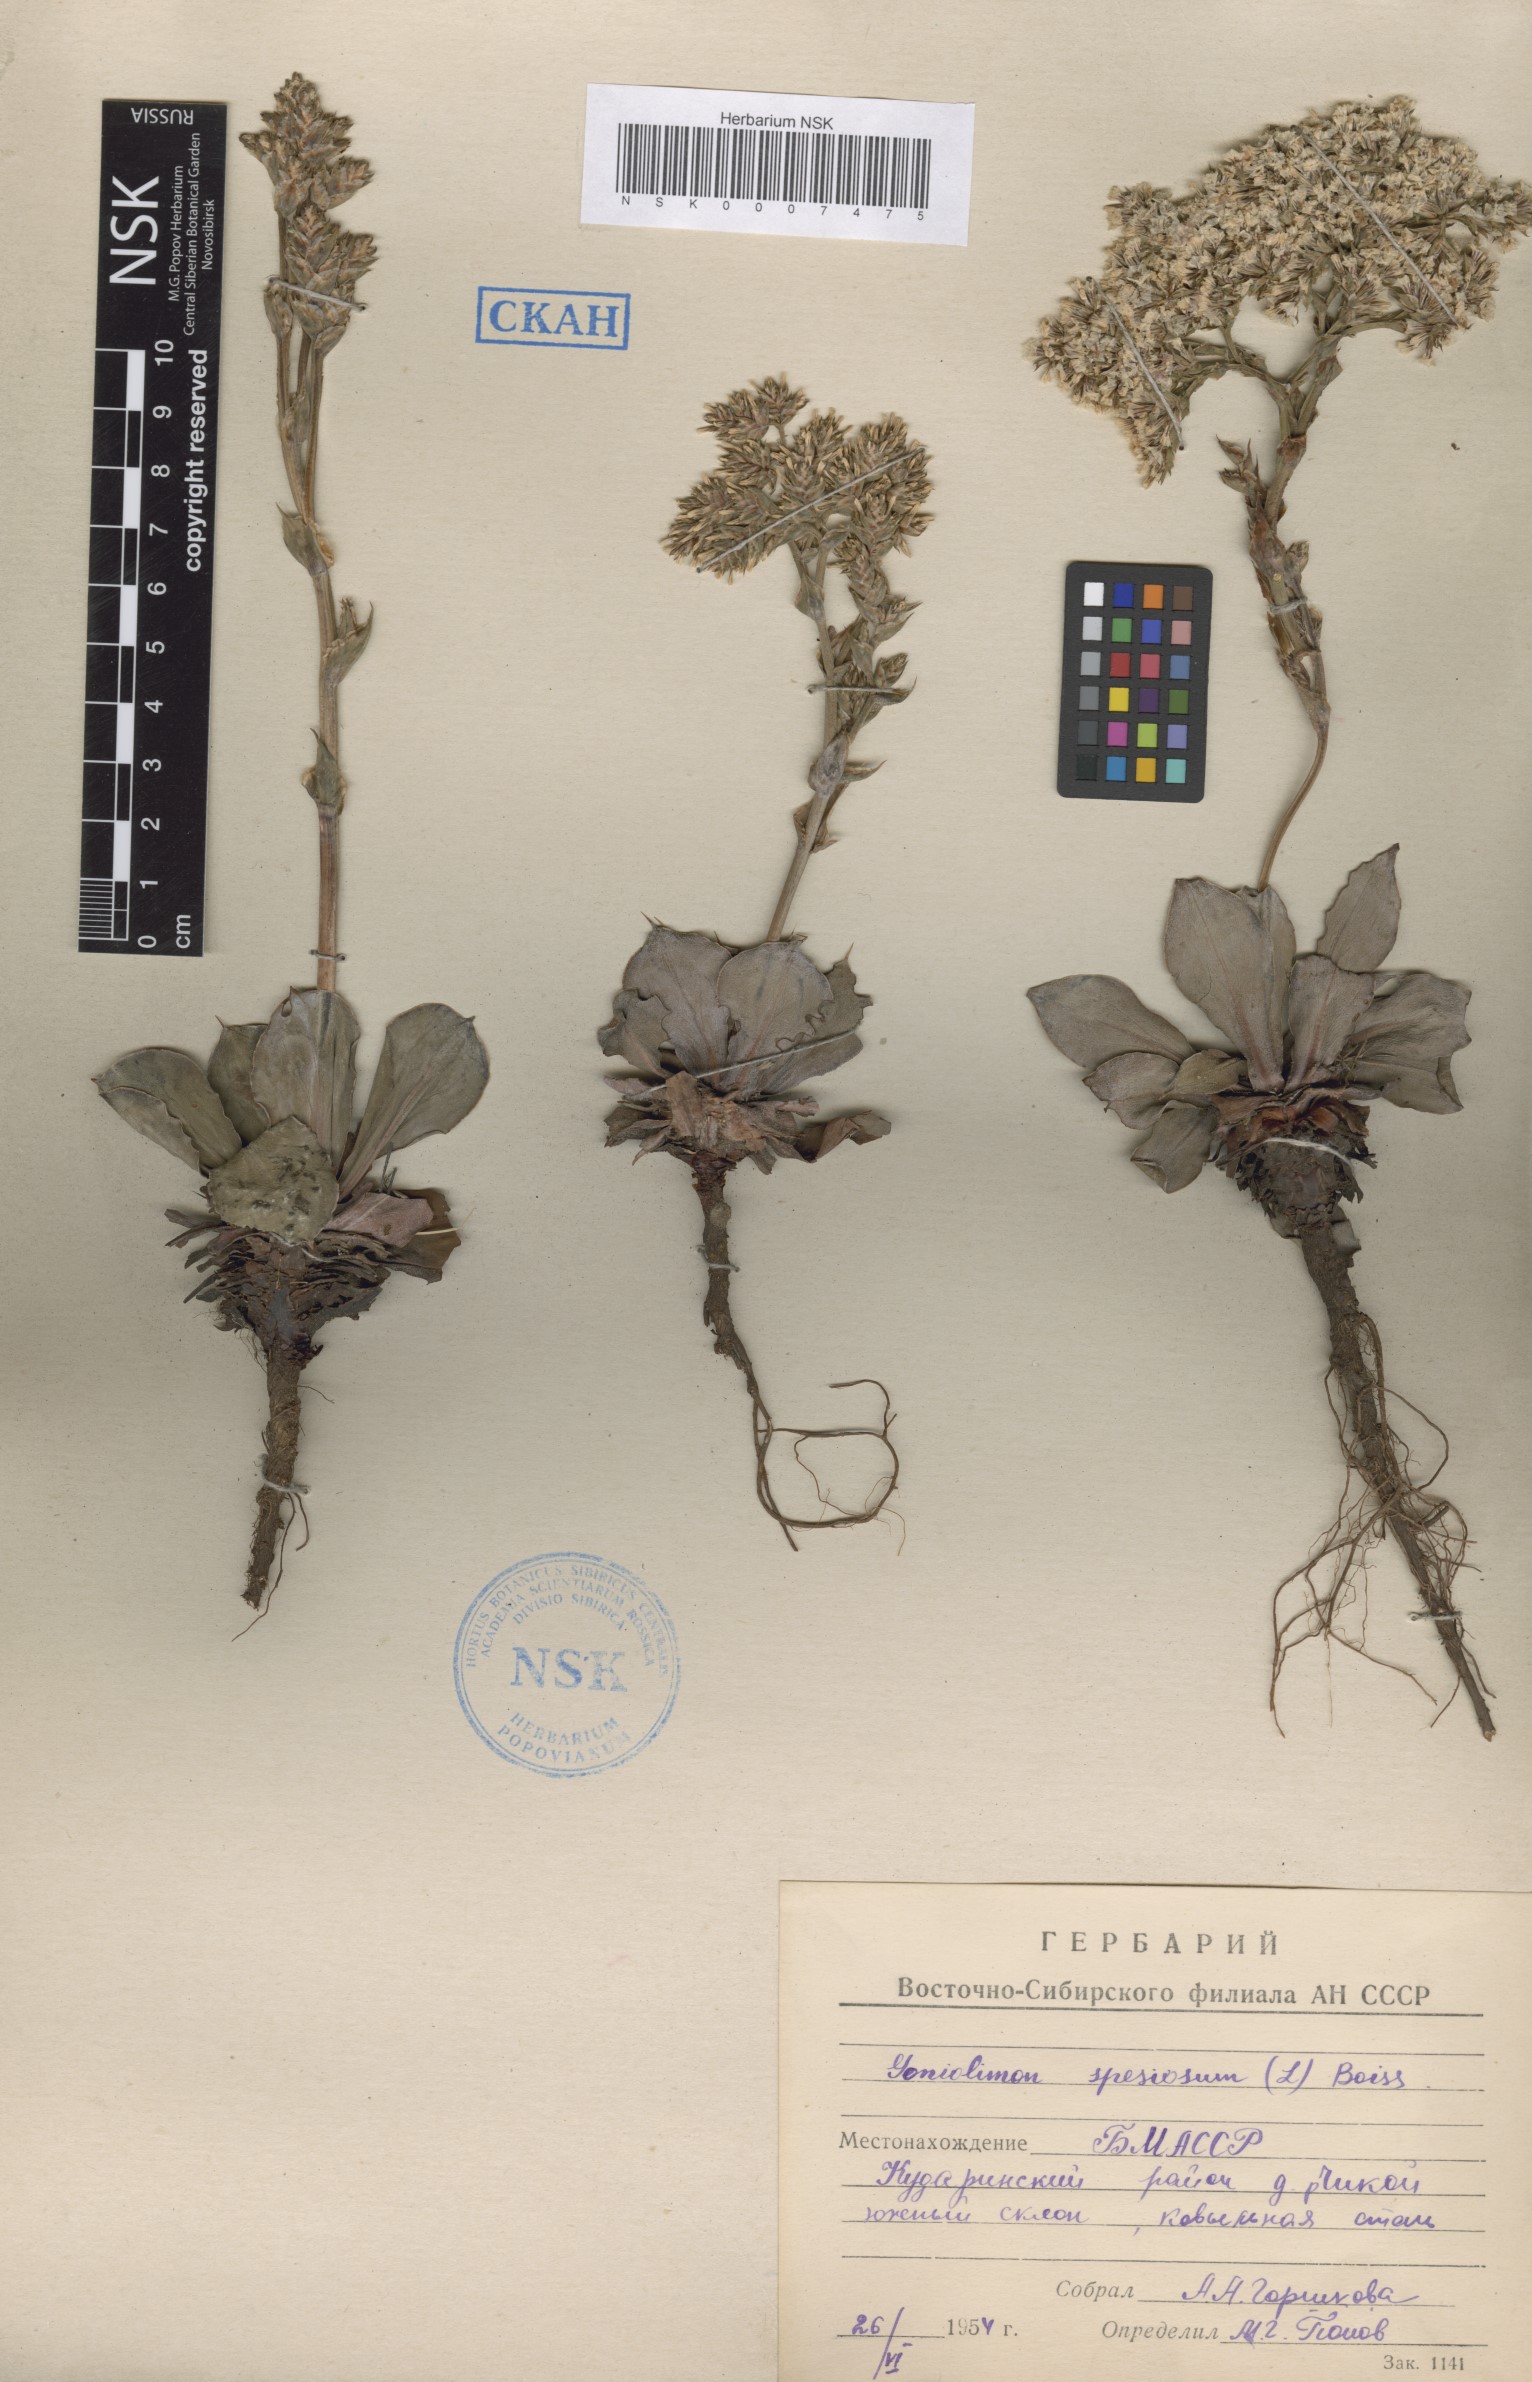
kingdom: Plantae
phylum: Tracheophyta
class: Magnoliopsida
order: Caryophyllales
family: Plumbaginaceae
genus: Goniolimon
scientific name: Goniolimon speciosum
